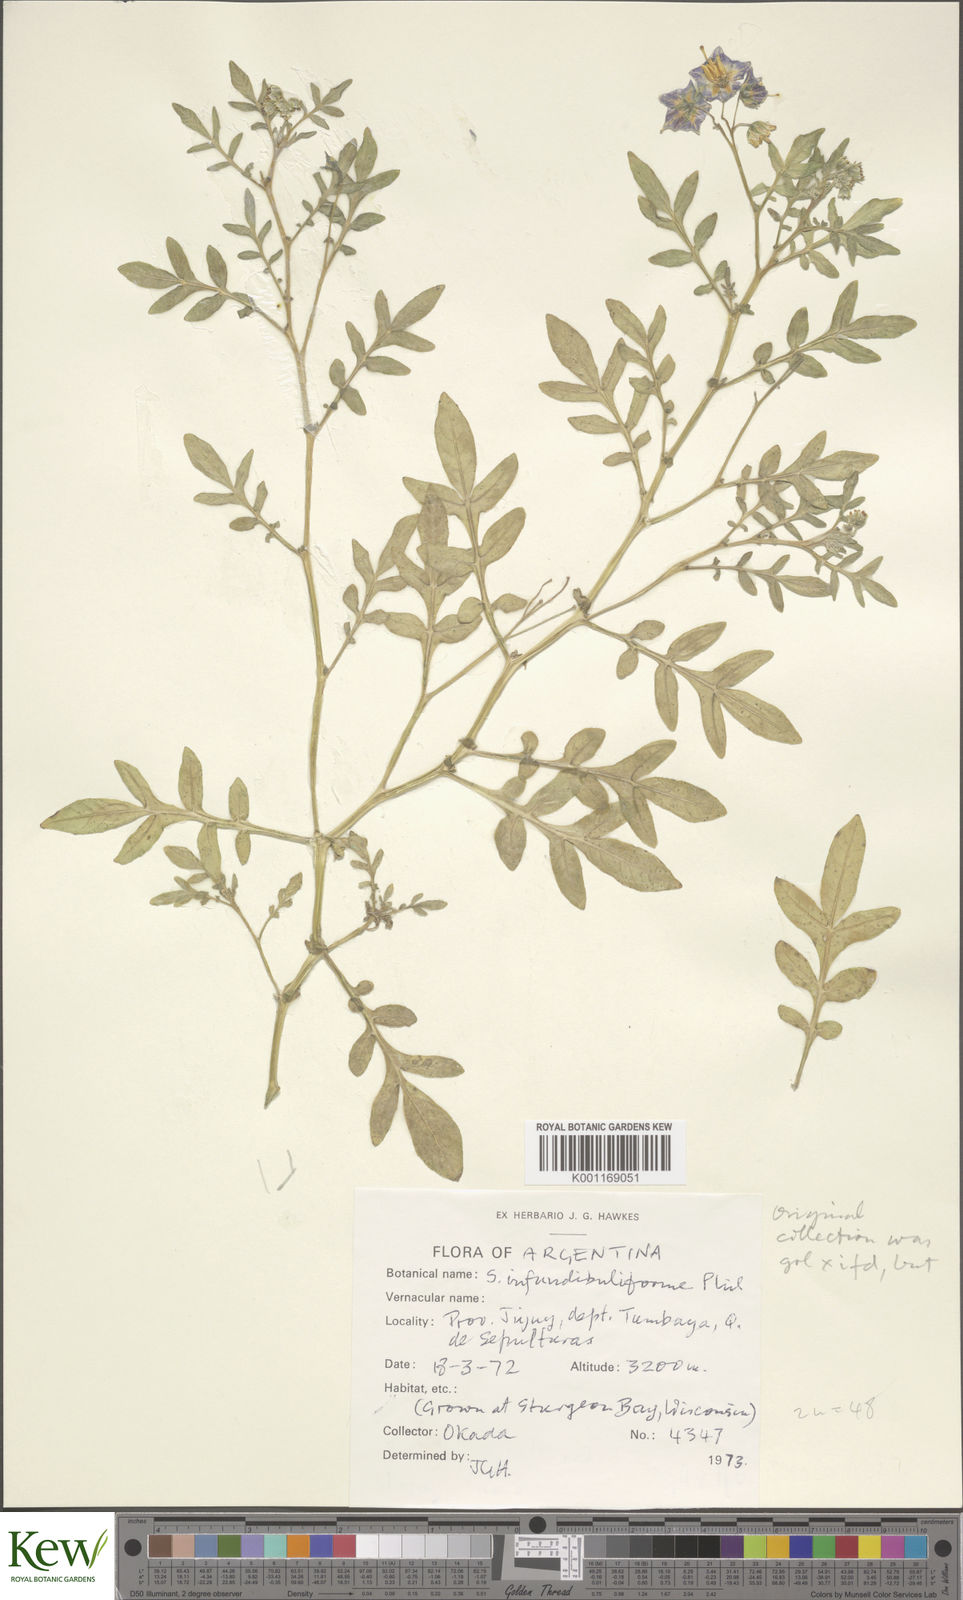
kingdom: Plantae
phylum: Tracheophyta
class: Magnoliopsida
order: Solanales
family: Solanaceae
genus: Solanum
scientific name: Solanum infundibuliforme
